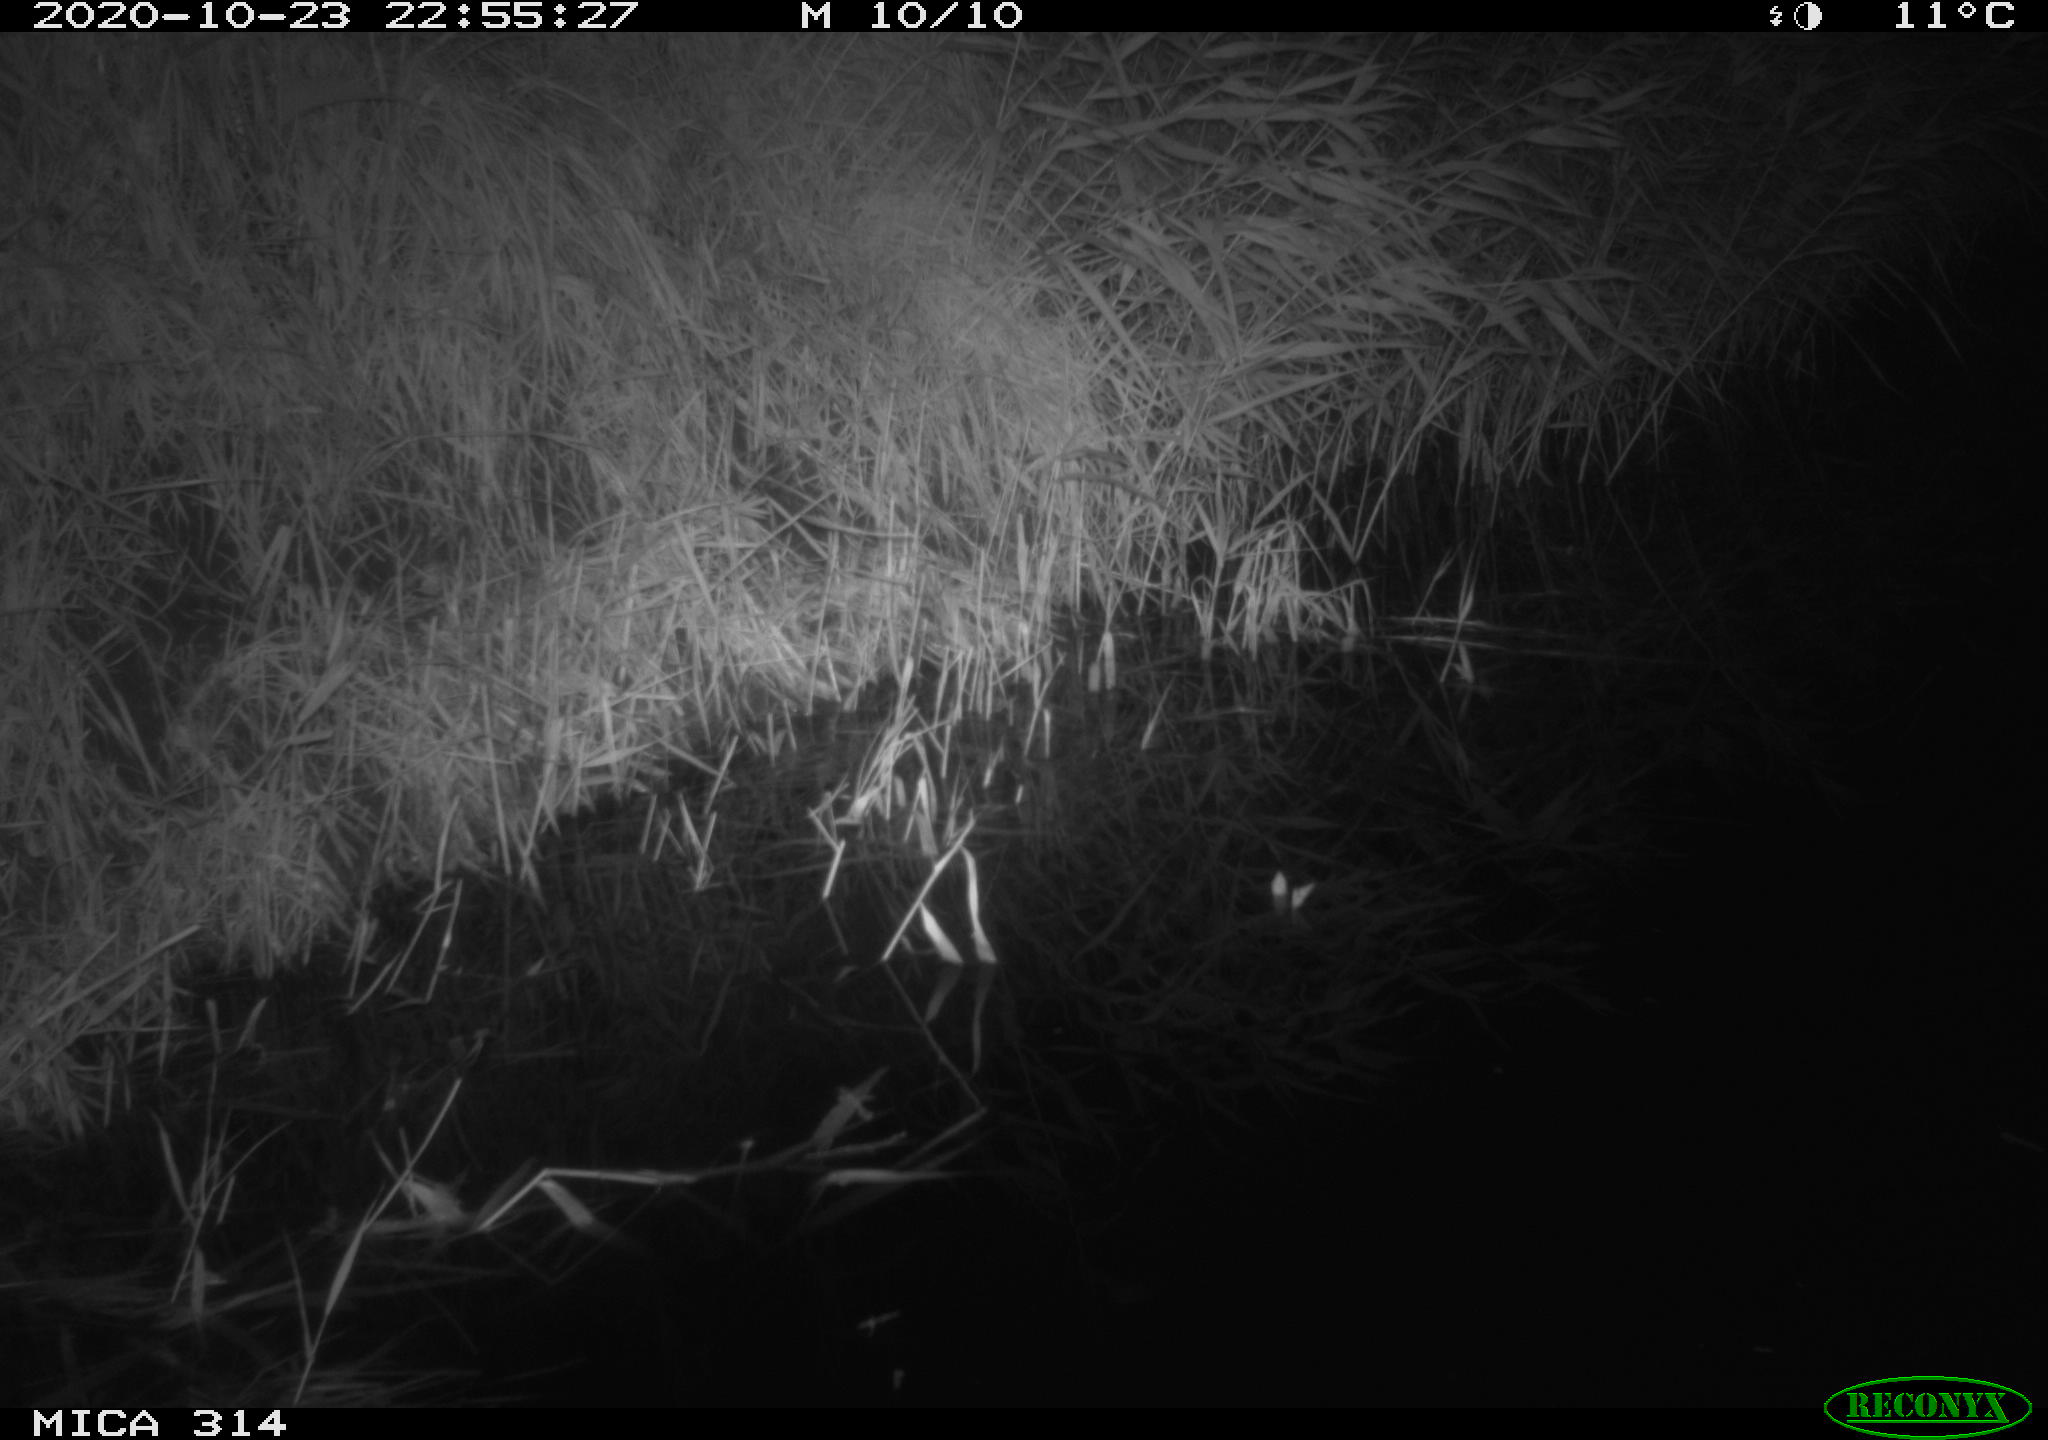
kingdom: Animalia
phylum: Chordata
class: Mammalia
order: Rodentia
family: Muridae
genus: Rattus
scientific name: Rattus norvegicus
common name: Brown rat
